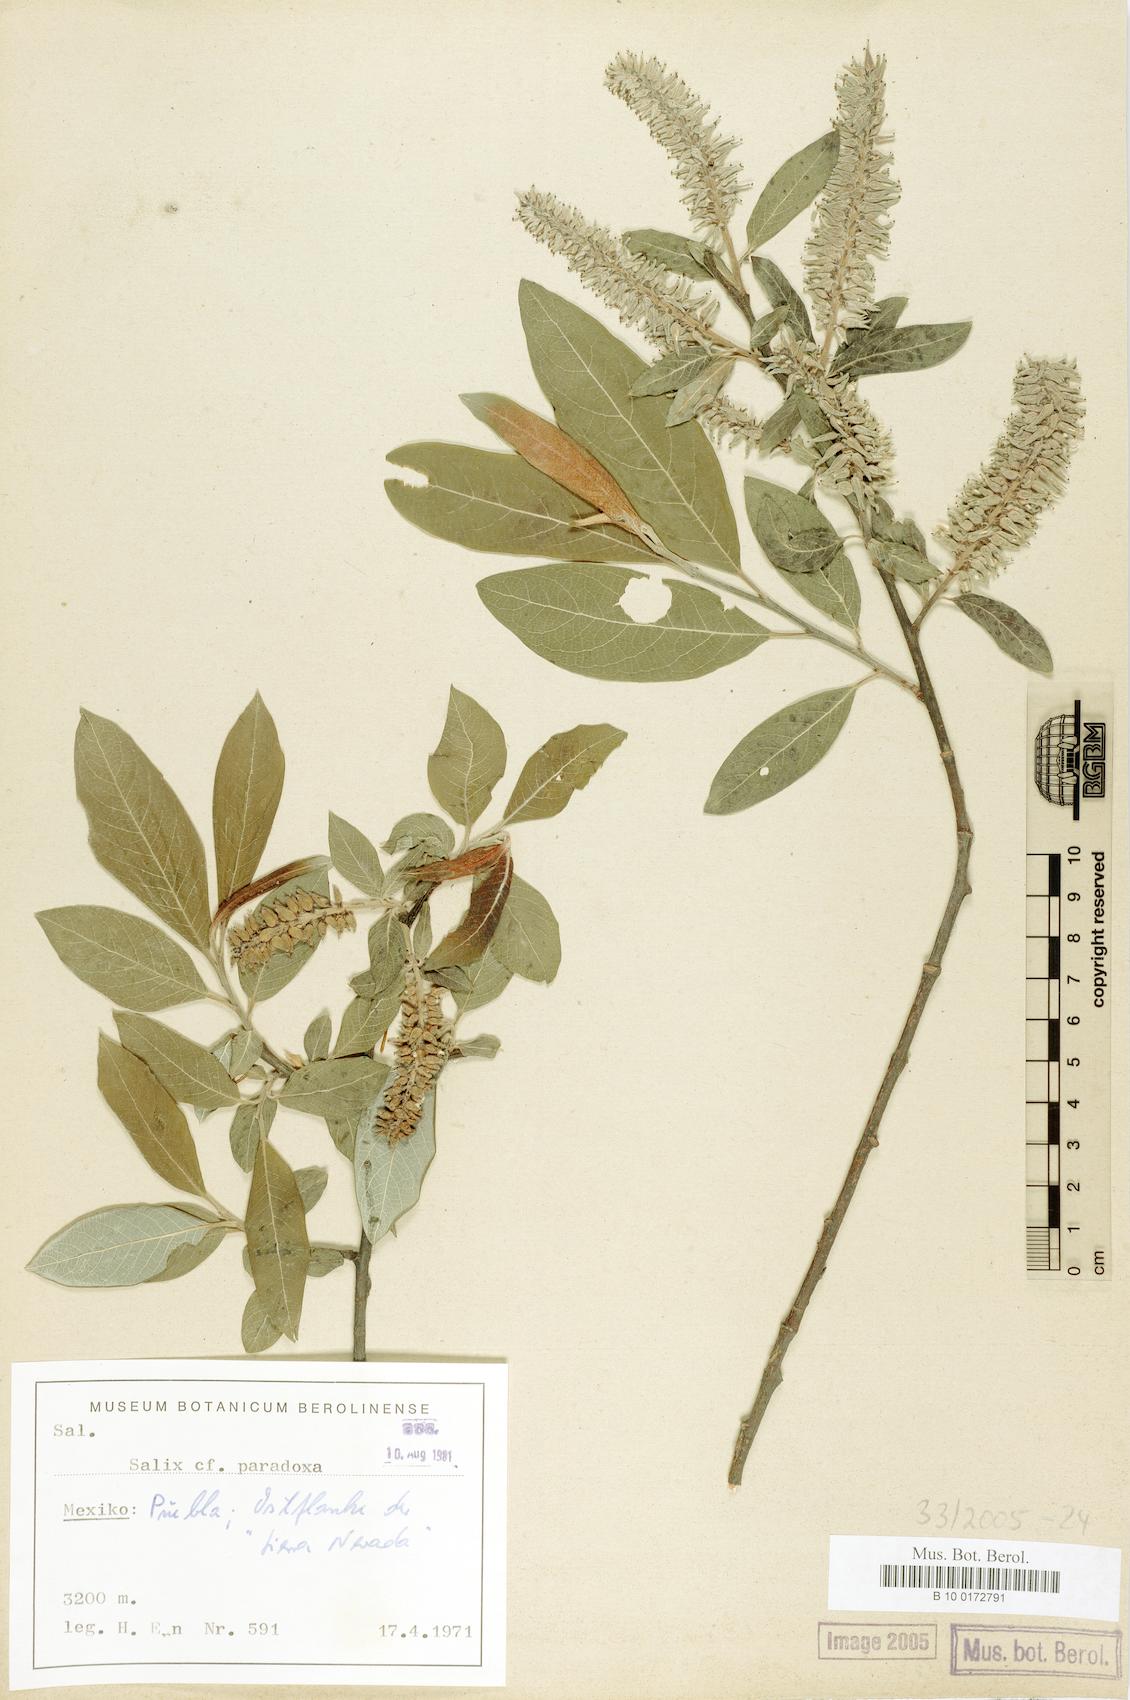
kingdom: Plantae
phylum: Tracheophyta
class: Magnoliopsida
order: Malpighiales
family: Salicaceae
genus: Salix
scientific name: Salix paradoxa
